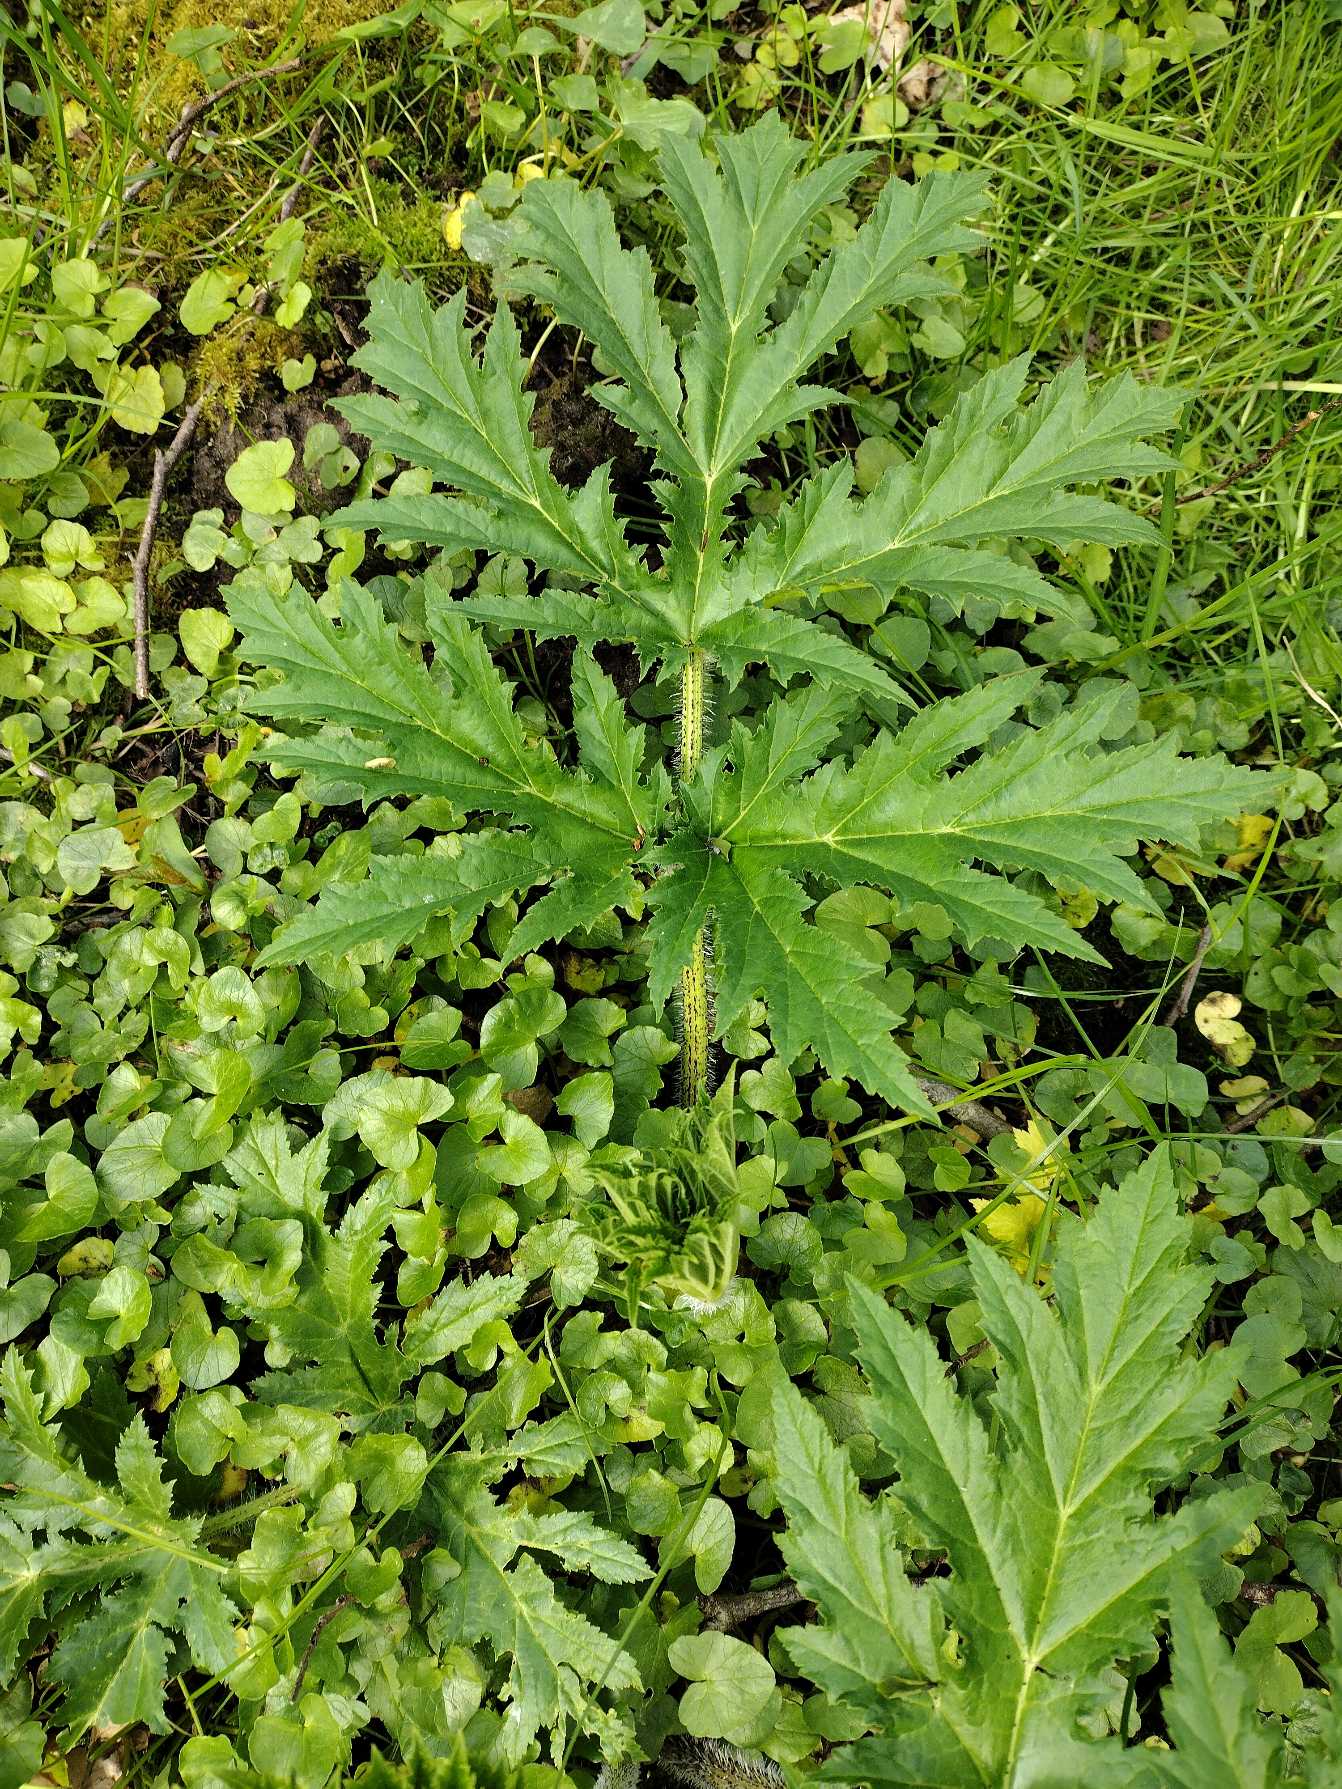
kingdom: Plantae
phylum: Tracheophyta
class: Magnoliopsida
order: Apiales
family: Apiaceae
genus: Heracleum
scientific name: Heracleum mantegazzianum
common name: Kæmpe-bjørneklo
